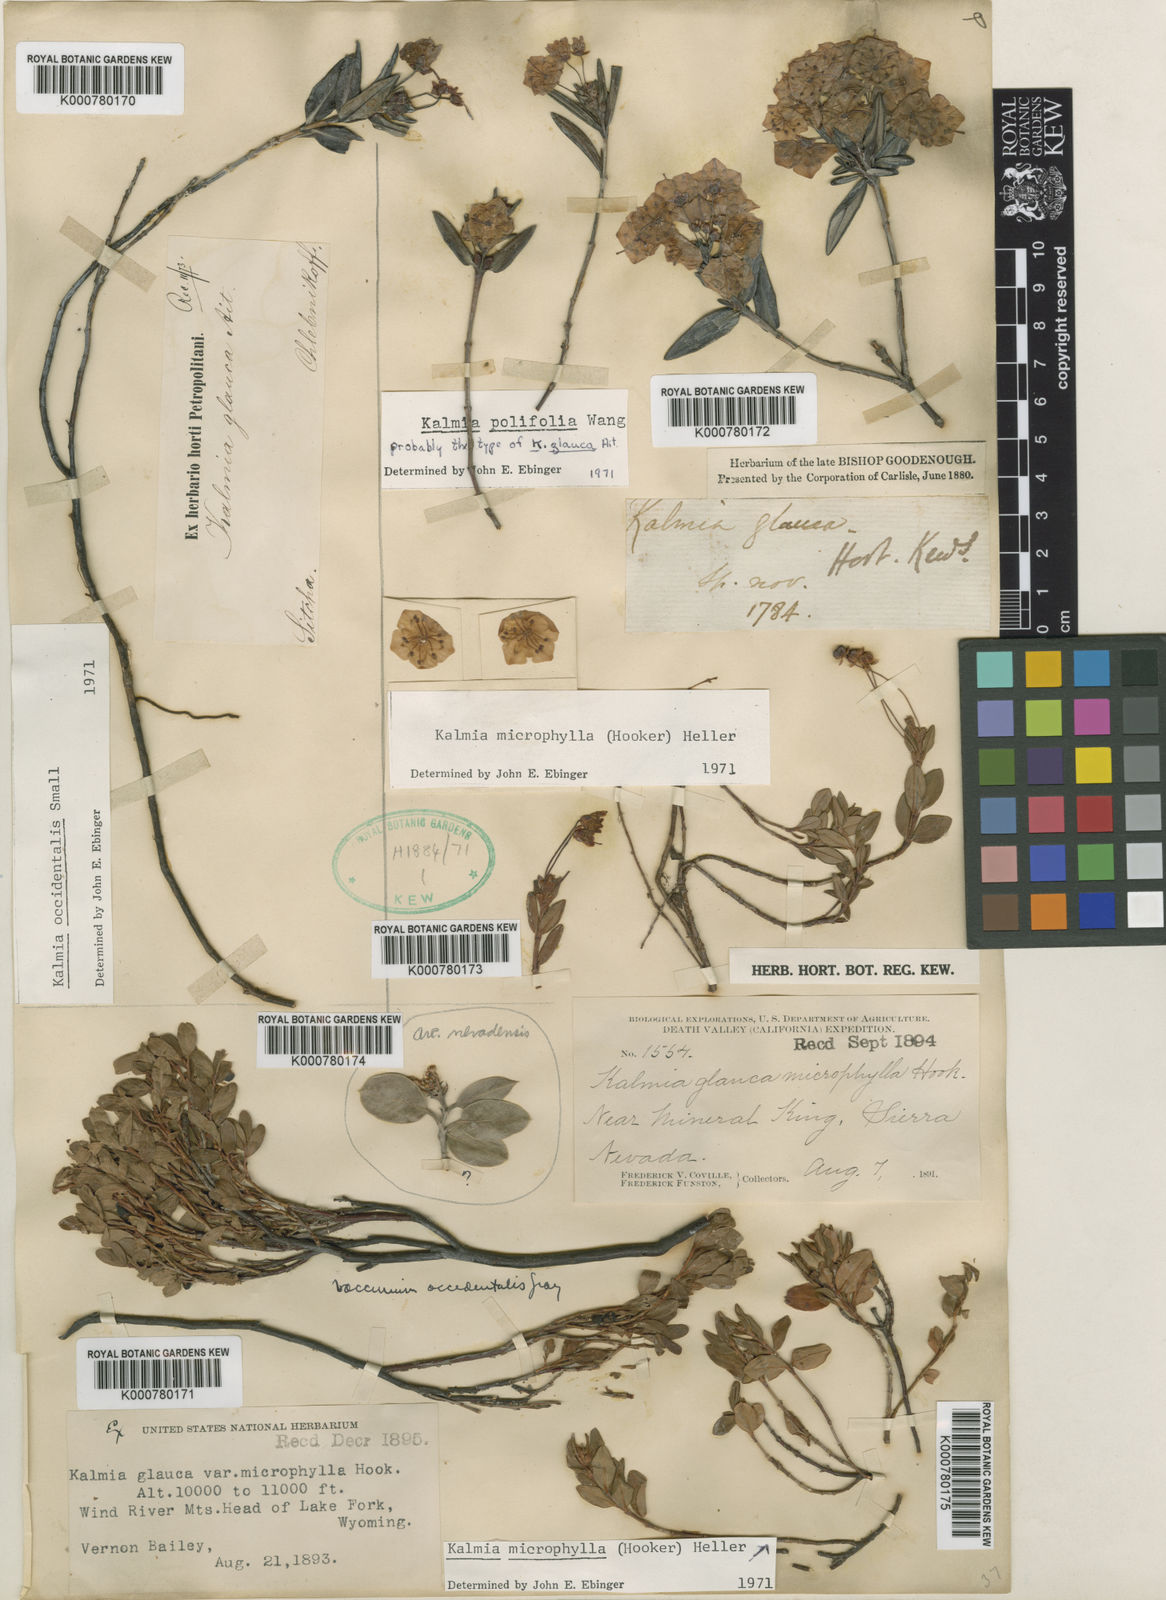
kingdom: Plantae
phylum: Tracheophyta
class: Magnoliopsida
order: Ericales
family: Ericaceae
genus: Kalmia
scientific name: Kalmia microphylla
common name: Alpine bog laurel
